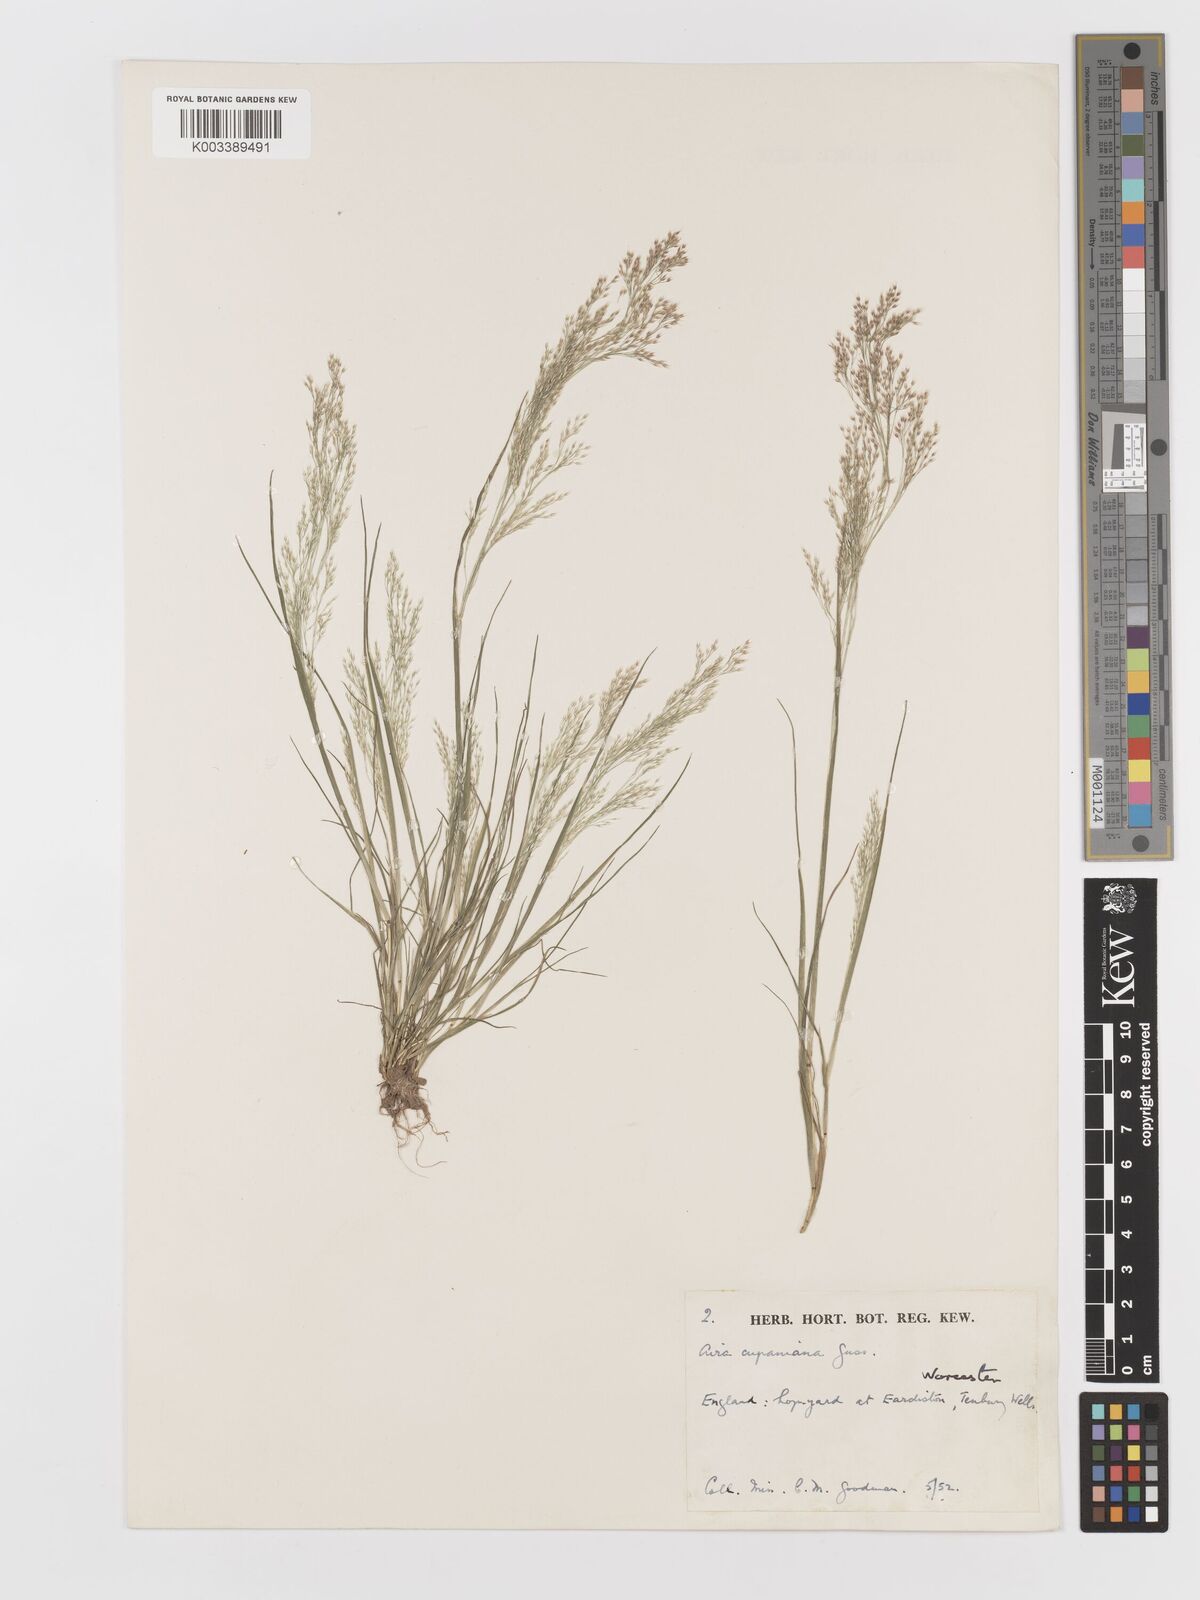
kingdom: Plantae
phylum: Tracheophyta
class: Liliopsida
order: Poales
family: Poaceae
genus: Aira
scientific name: Aira caryophyllea
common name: Silver hairgrass
